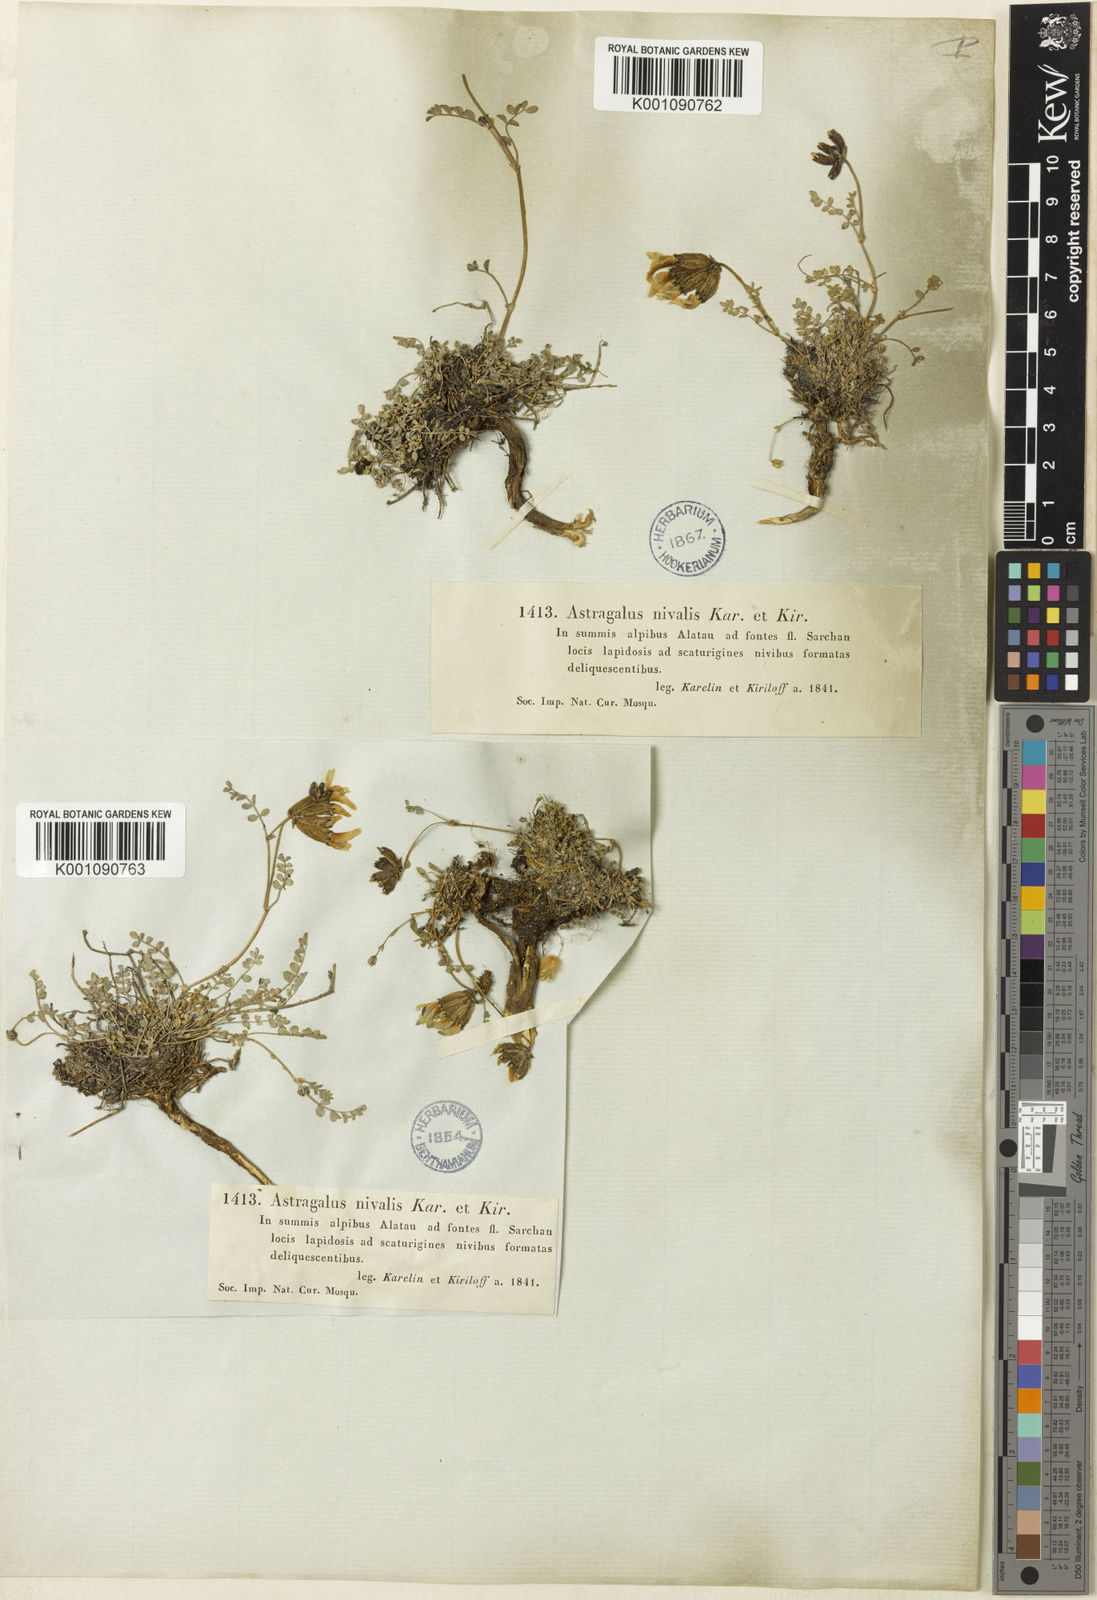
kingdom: Plantae
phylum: Tracheophyta
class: Magnoliopsida
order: Fabales
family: Fabaceae
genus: Astragalus
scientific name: Astragalus
